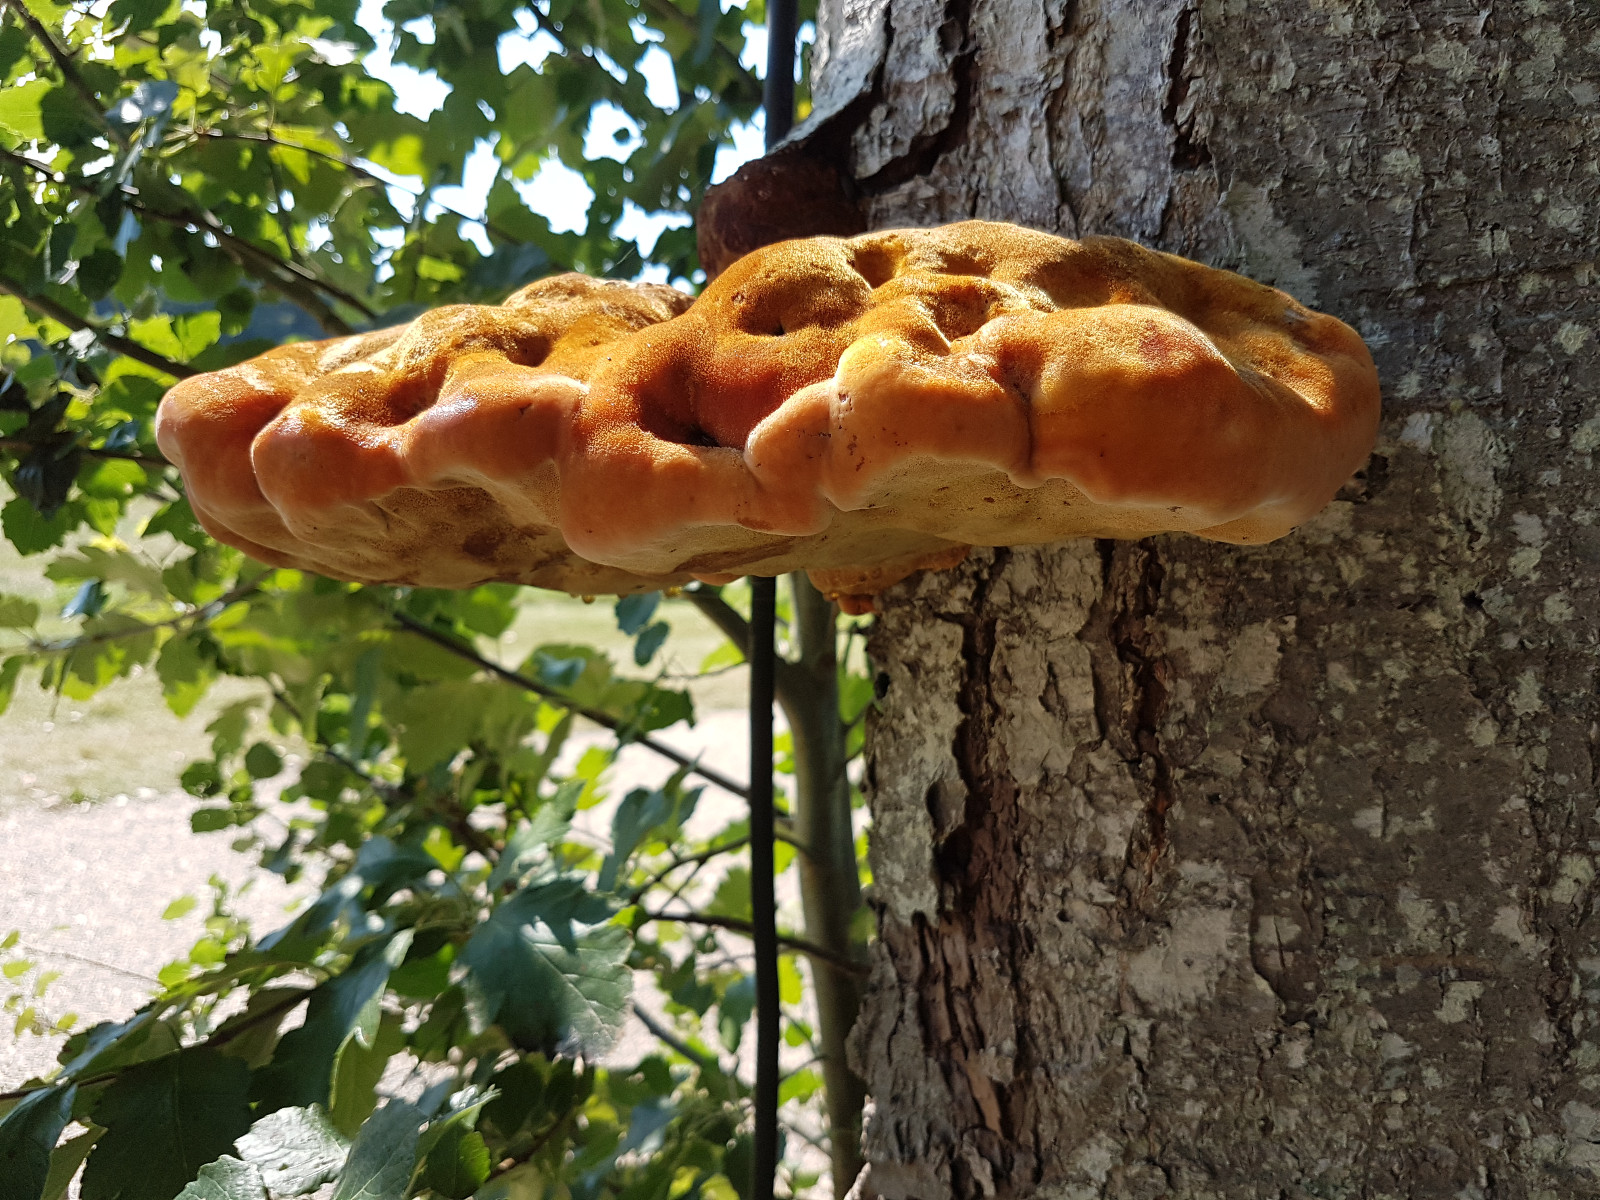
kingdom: Fungi
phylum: Basidiomycota
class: Agaricomycetes
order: Hymenochaetales
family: Hymenochaetaceae
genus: Inonotus
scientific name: Inonotus hispidus
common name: børstehåret spejlporesvamp
